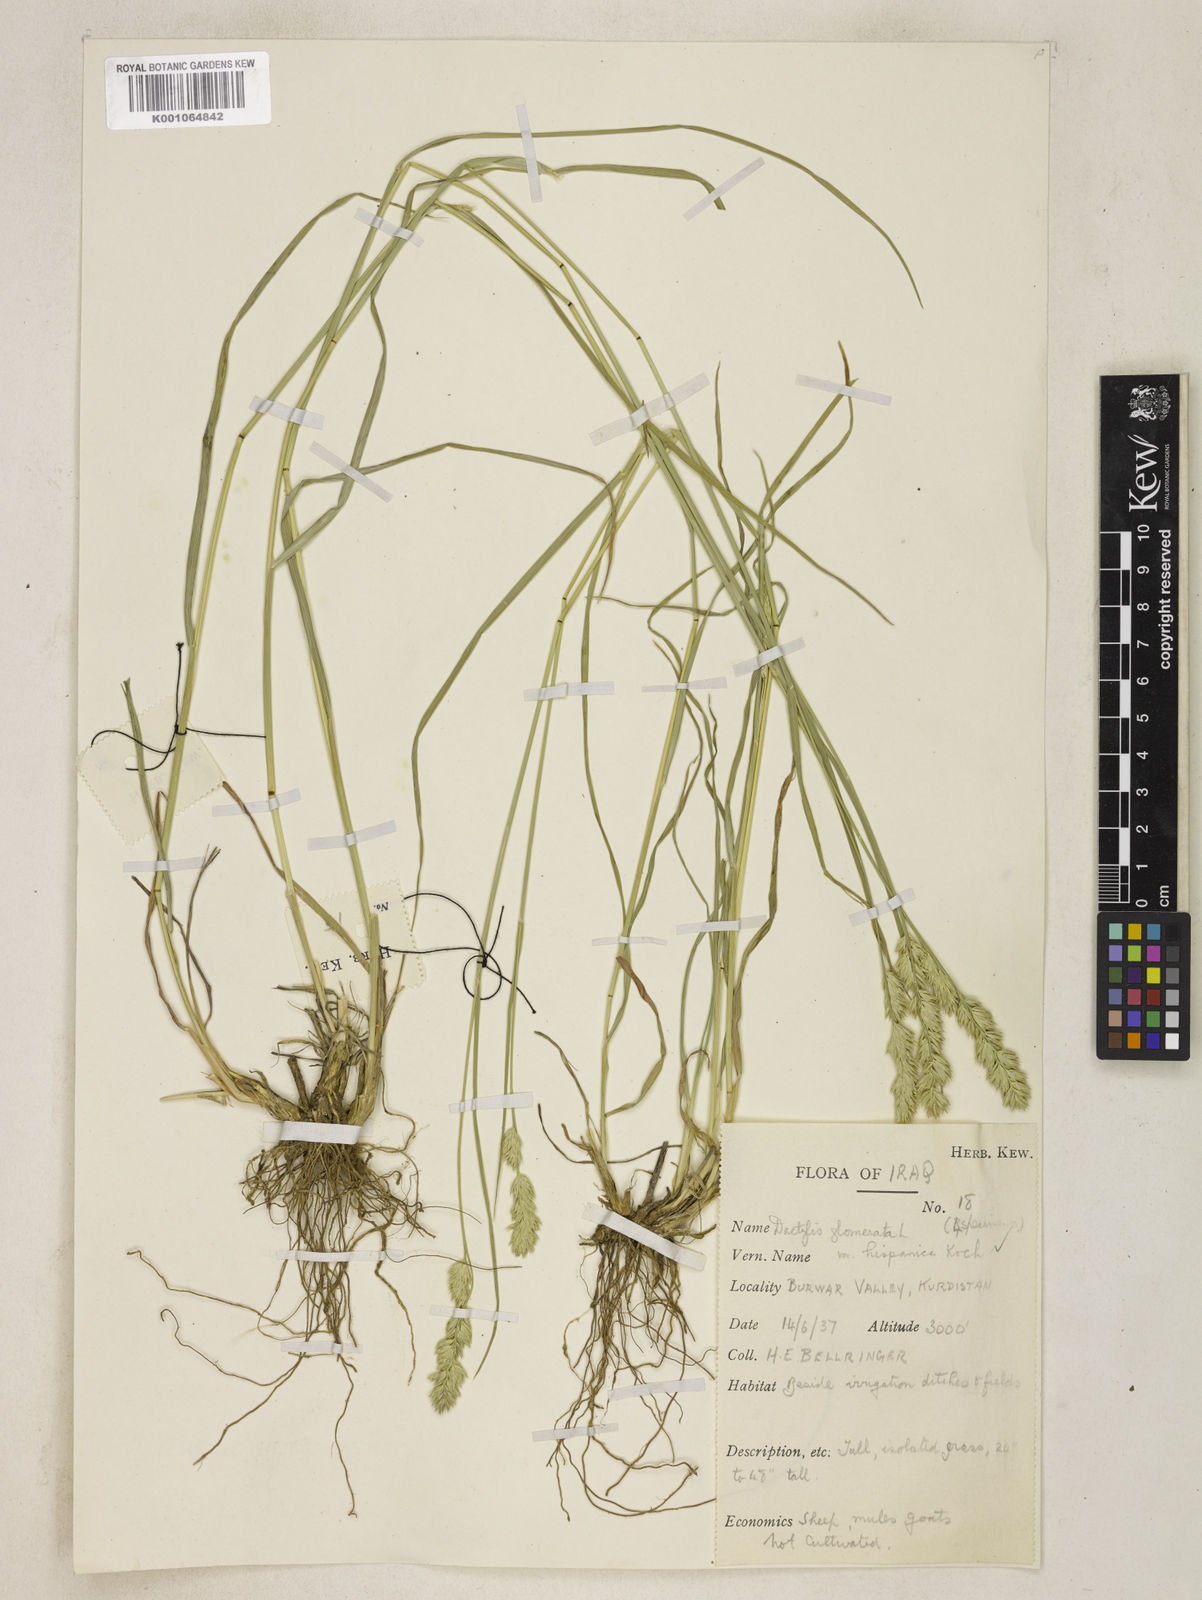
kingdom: Plantae
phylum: Tracheophyta
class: Liliopsida
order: Poales
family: Poaceae
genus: Dactylis
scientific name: Dactylis glomerata
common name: Orchardgrass
